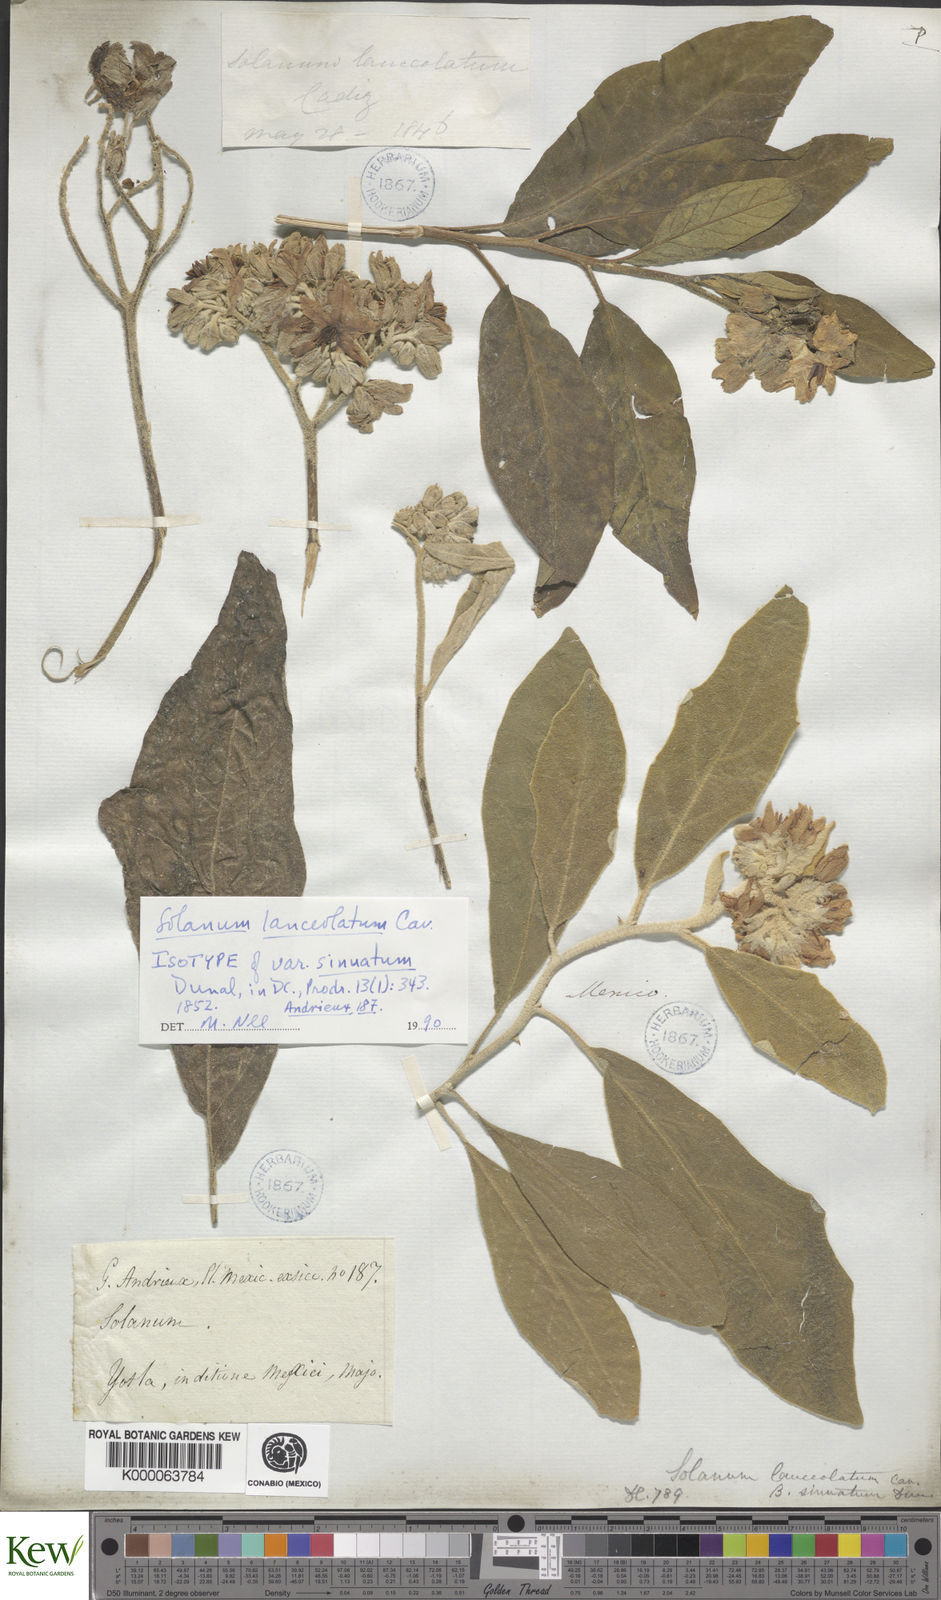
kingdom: Plantae
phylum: Tracheophyta
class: Magnoliopsida
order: Solanales
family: Solanaceae
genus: Solanum
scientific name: Solanum lanceolatum
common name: Orangeberry nightshade
